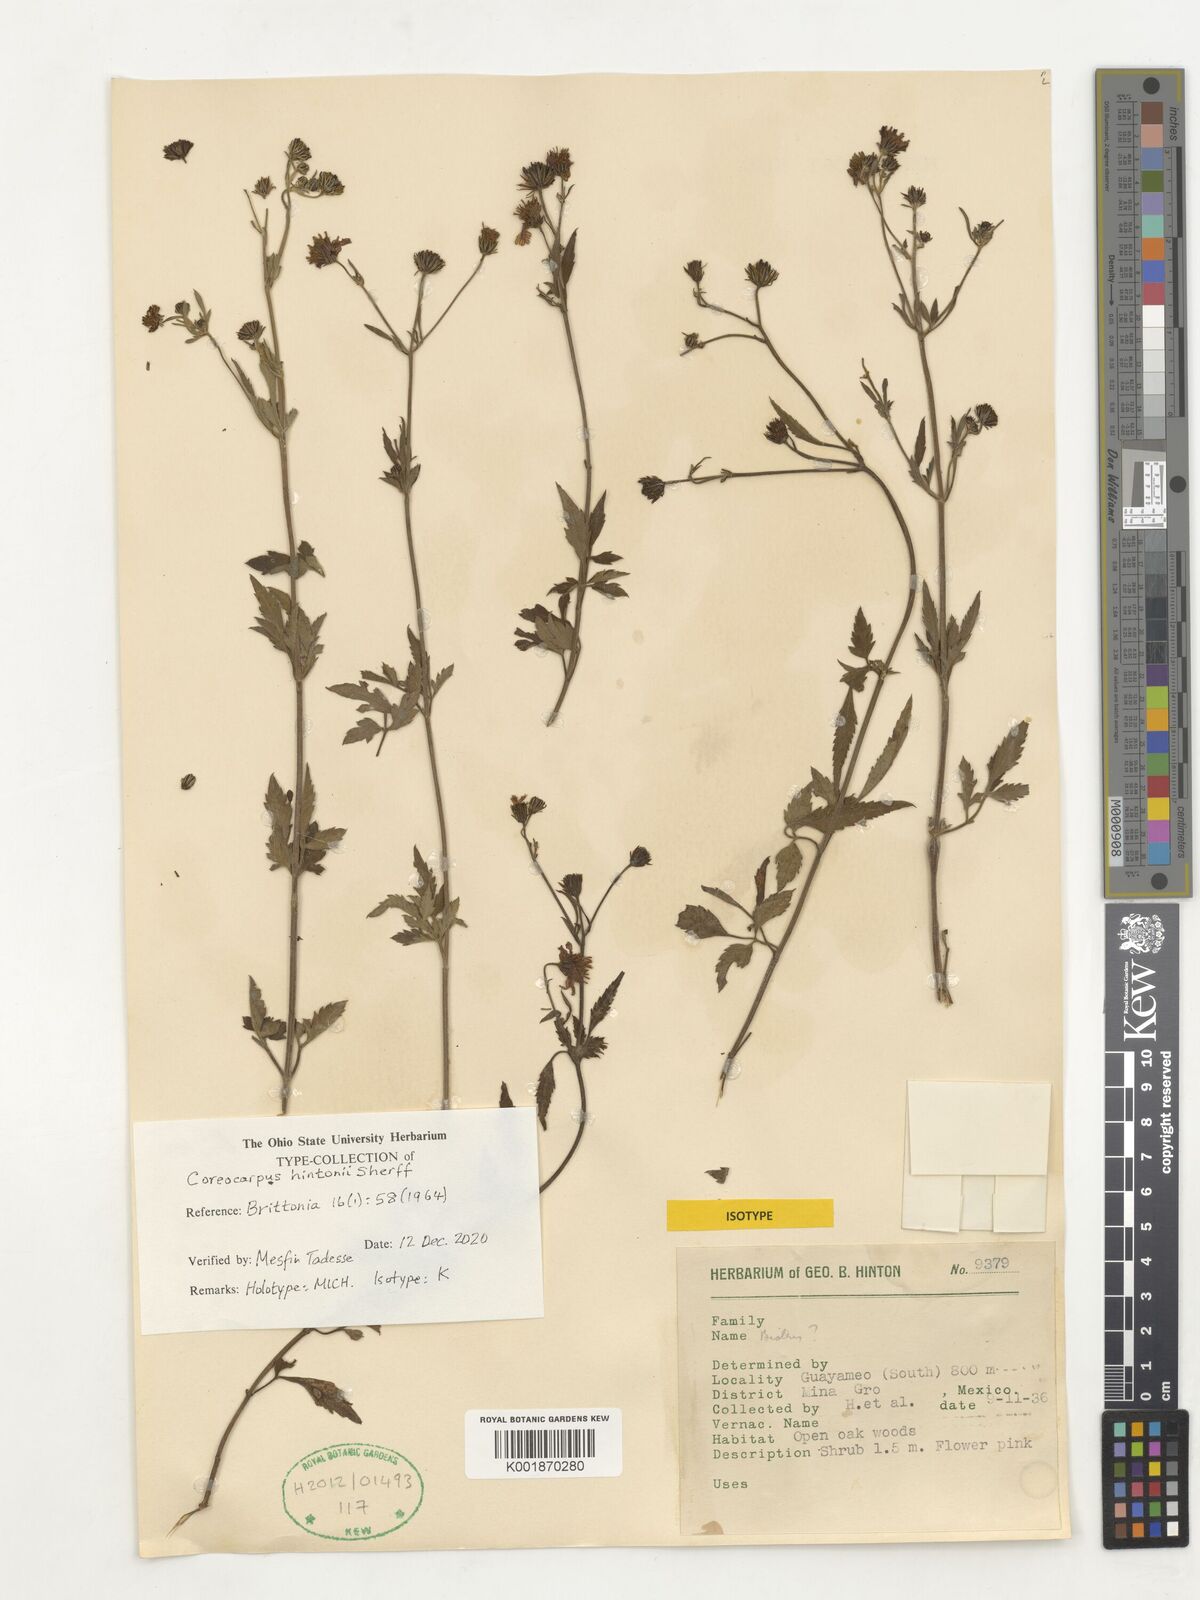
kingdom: Plantae
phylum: Tracheophyta
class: Magnoliopsida
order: Asterales
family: Asteraceae
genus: Bidens
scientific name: Bidens hintonii
